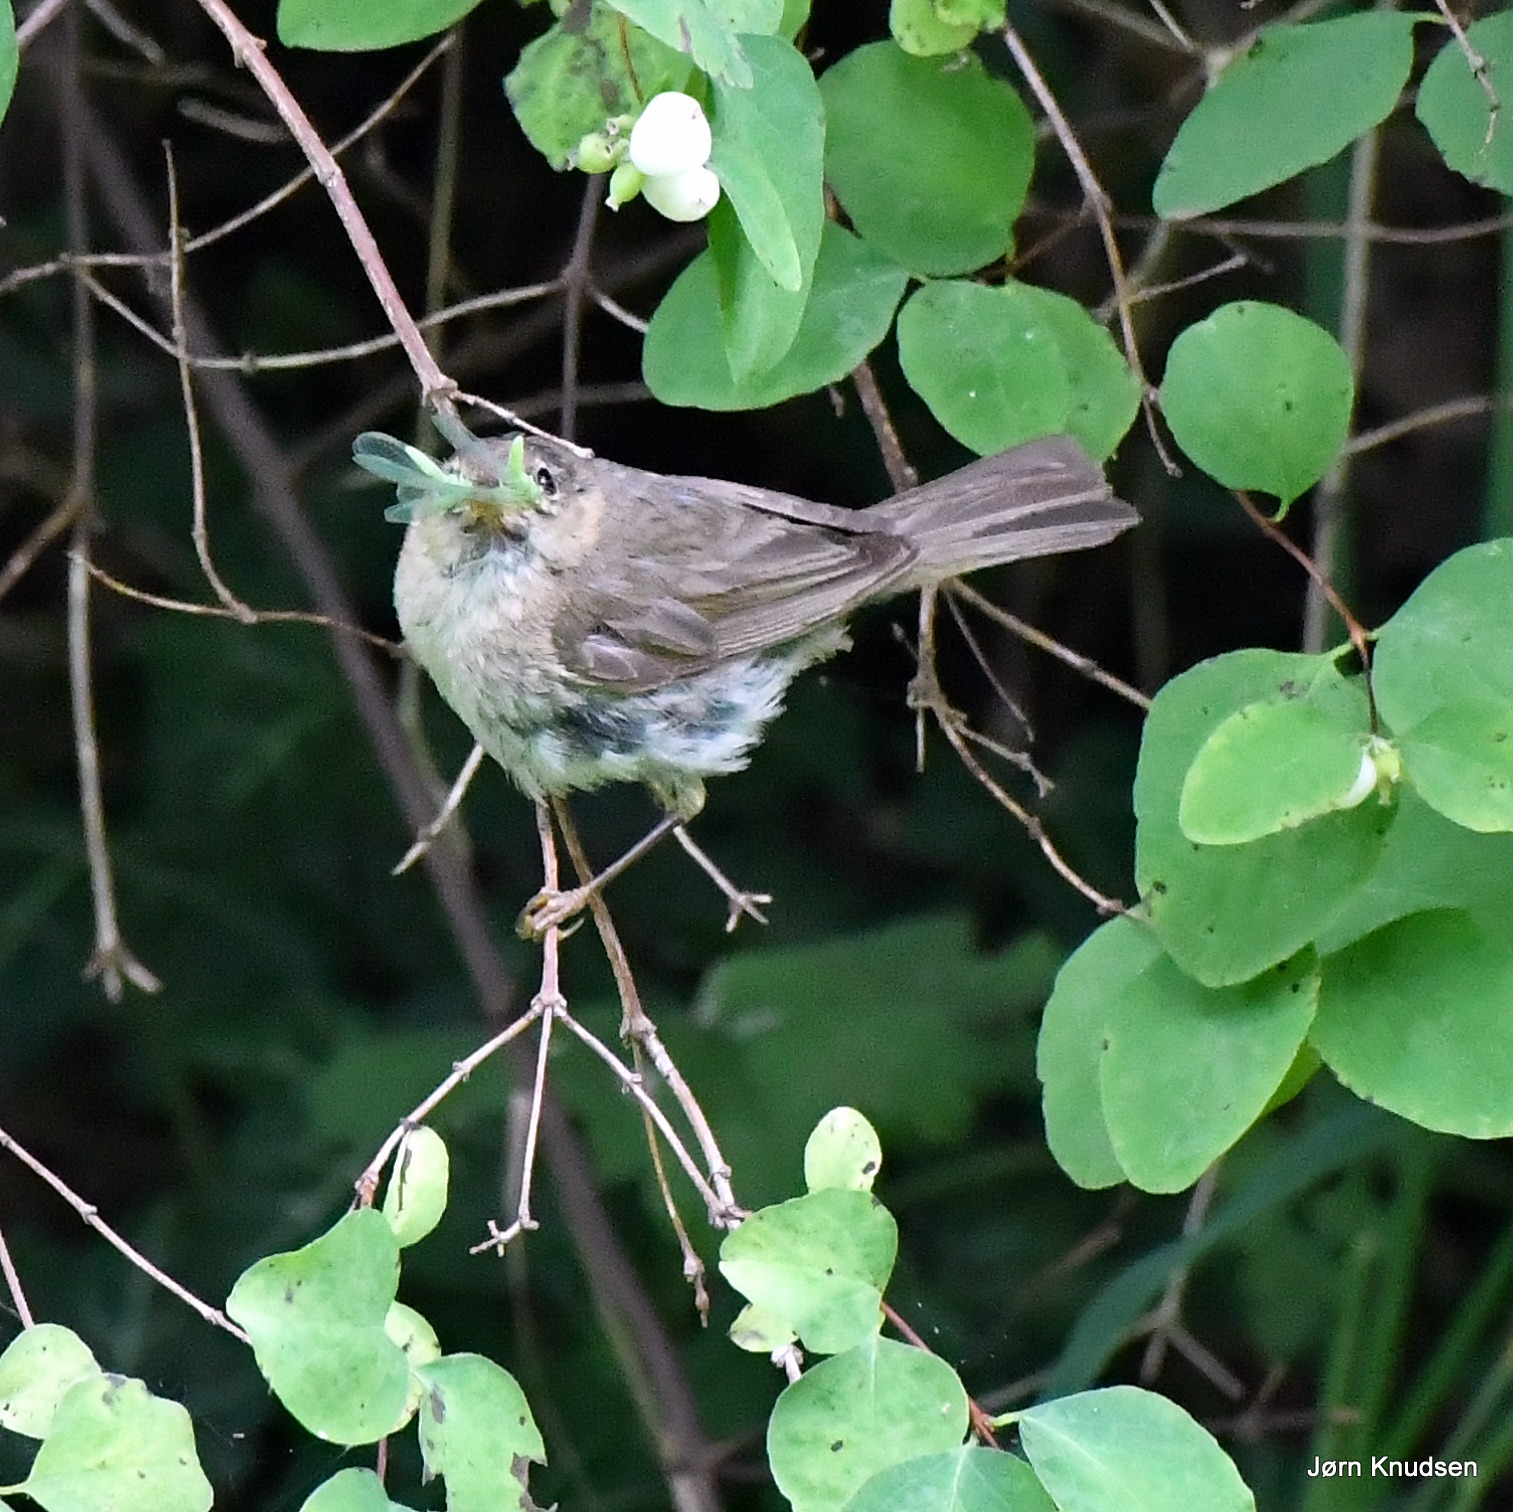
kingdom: Animalia
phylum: Chordata
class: Aves
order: Passeriformes
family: Phylloscopidae
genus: Phylloscopus
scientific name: Phylloscopus collybita
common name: Gransanger
